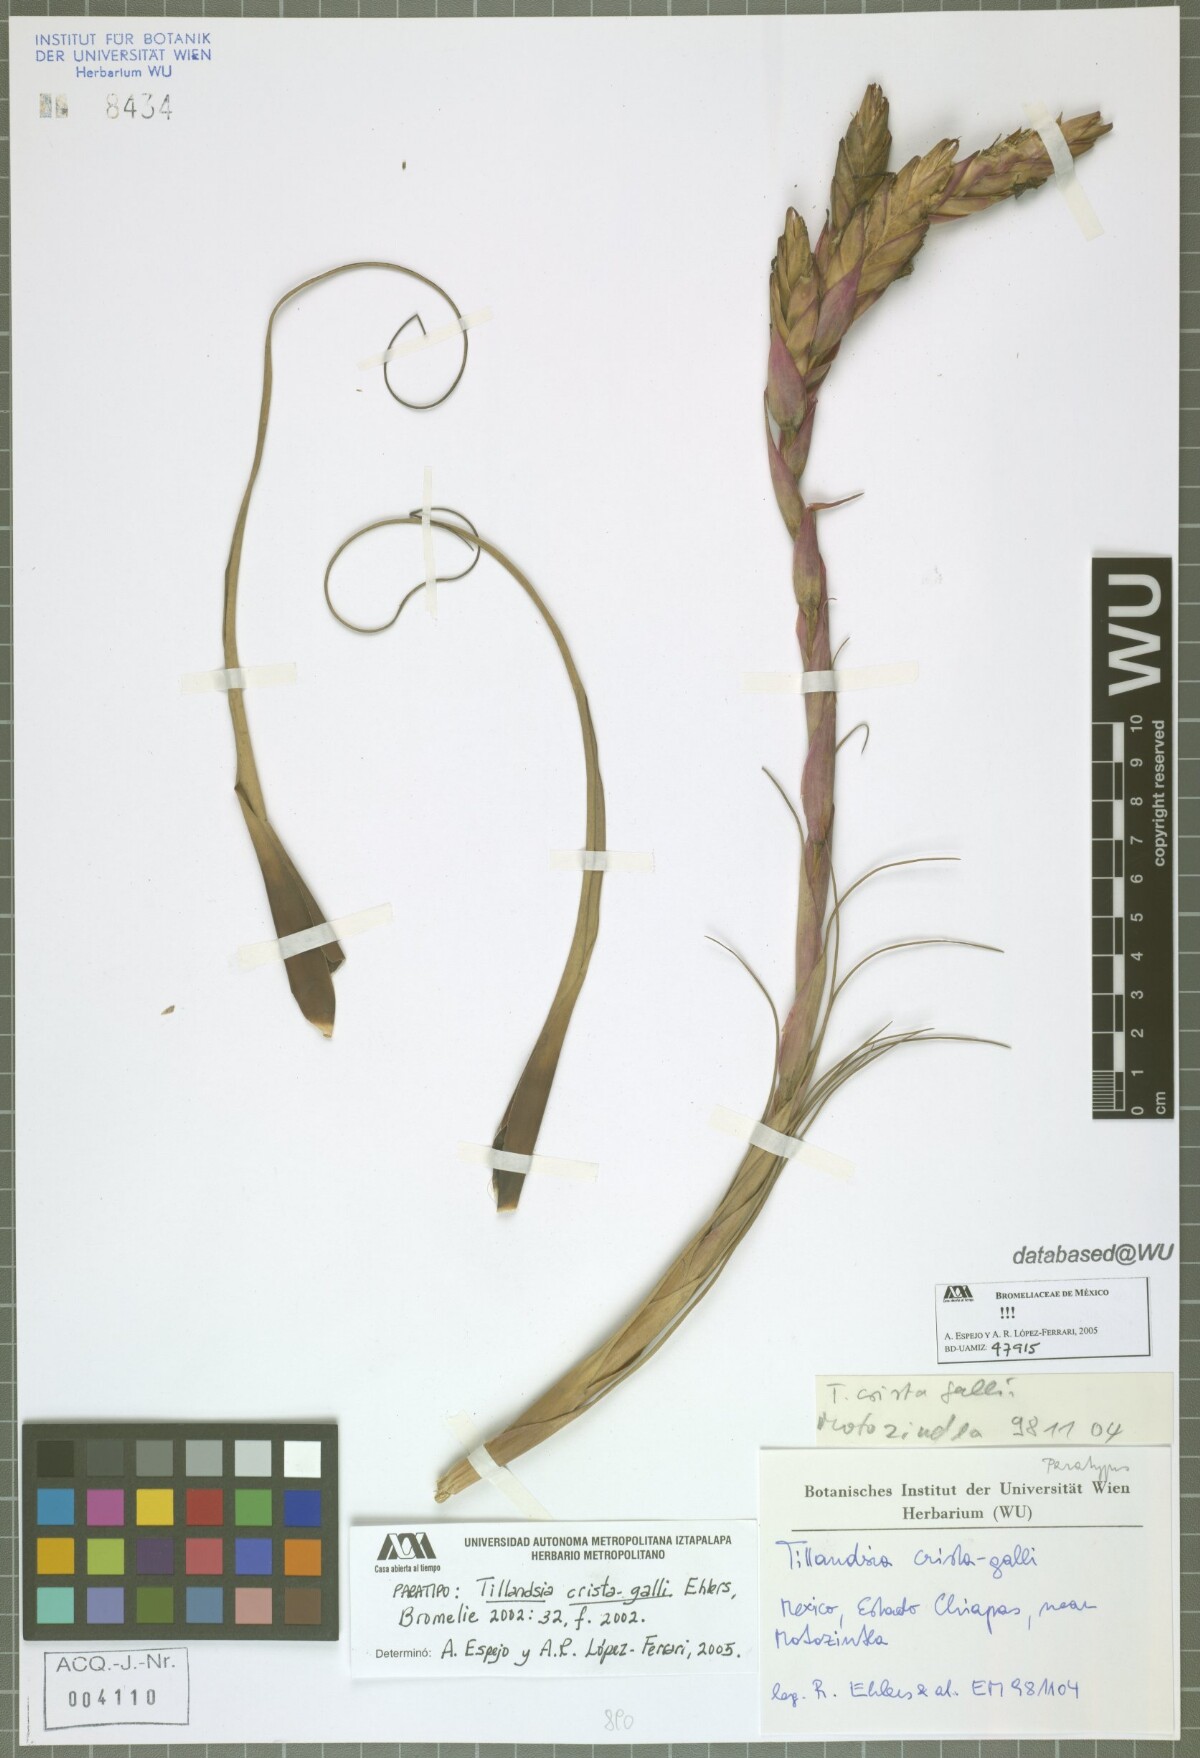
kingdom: Plantae
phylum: Tracheophyta
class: Liliopsida
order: Poales
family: Bromeliaceae
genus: Tillandsia
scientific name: Tillandsia crista-galli
